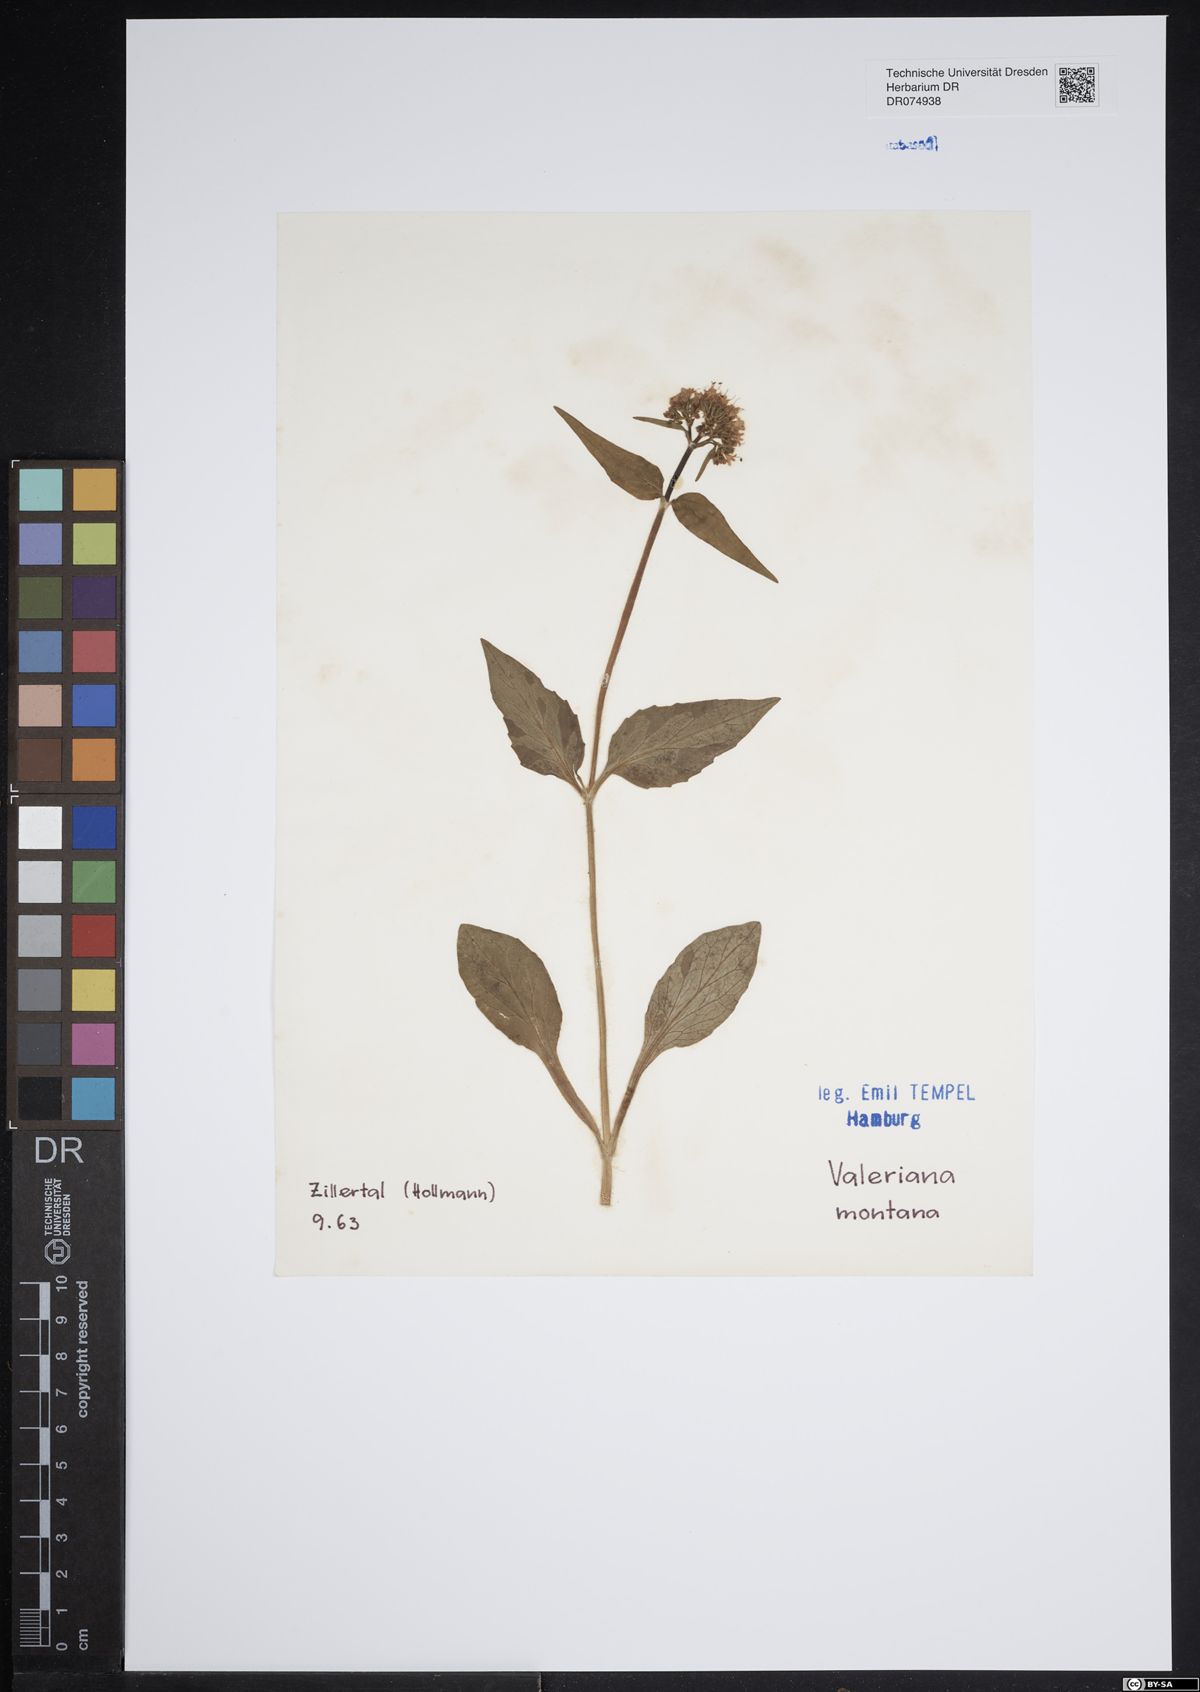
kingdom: Plantae
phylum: Tracheophyta
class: Magnoliopsida
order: Dipsacales
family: Caprifoliaceae
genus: Valeriana
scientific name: Valeriana montana
